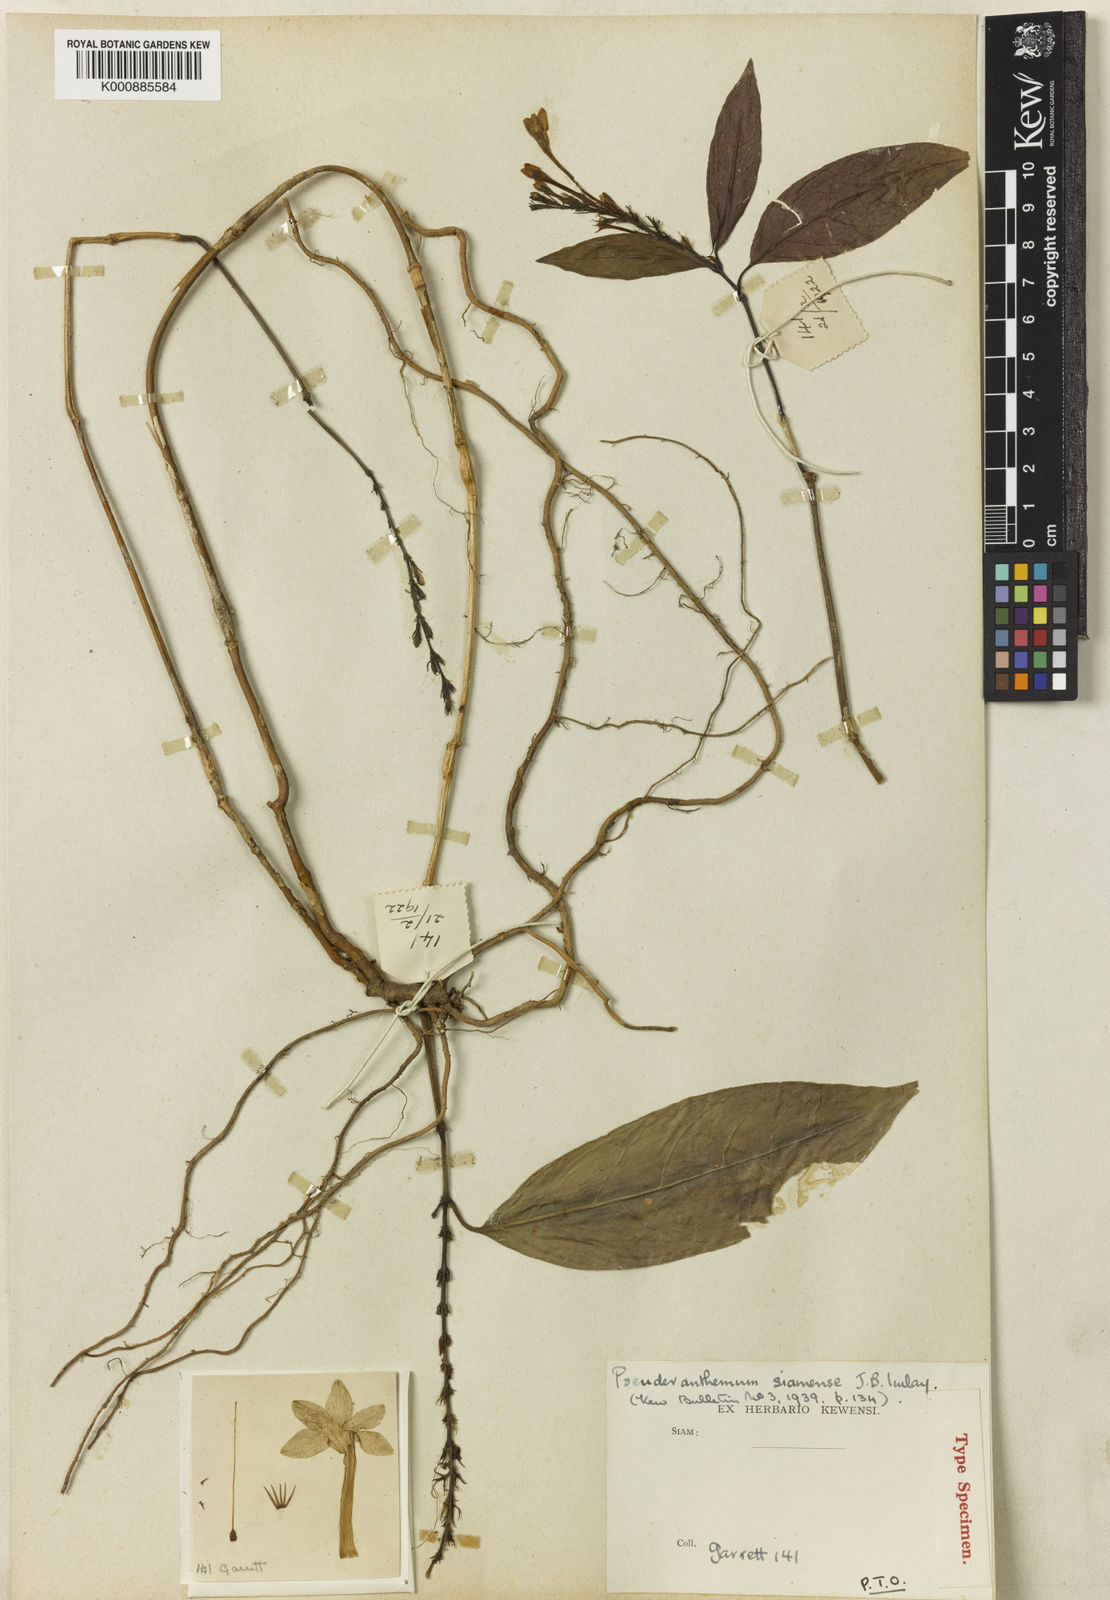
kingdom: Plantae
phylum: Tracheophyta
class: Magnoliopsida
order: Lamiales
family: Acanthaceae
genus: Pseuderanthemum
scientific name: Pseuderanthemum siamense
